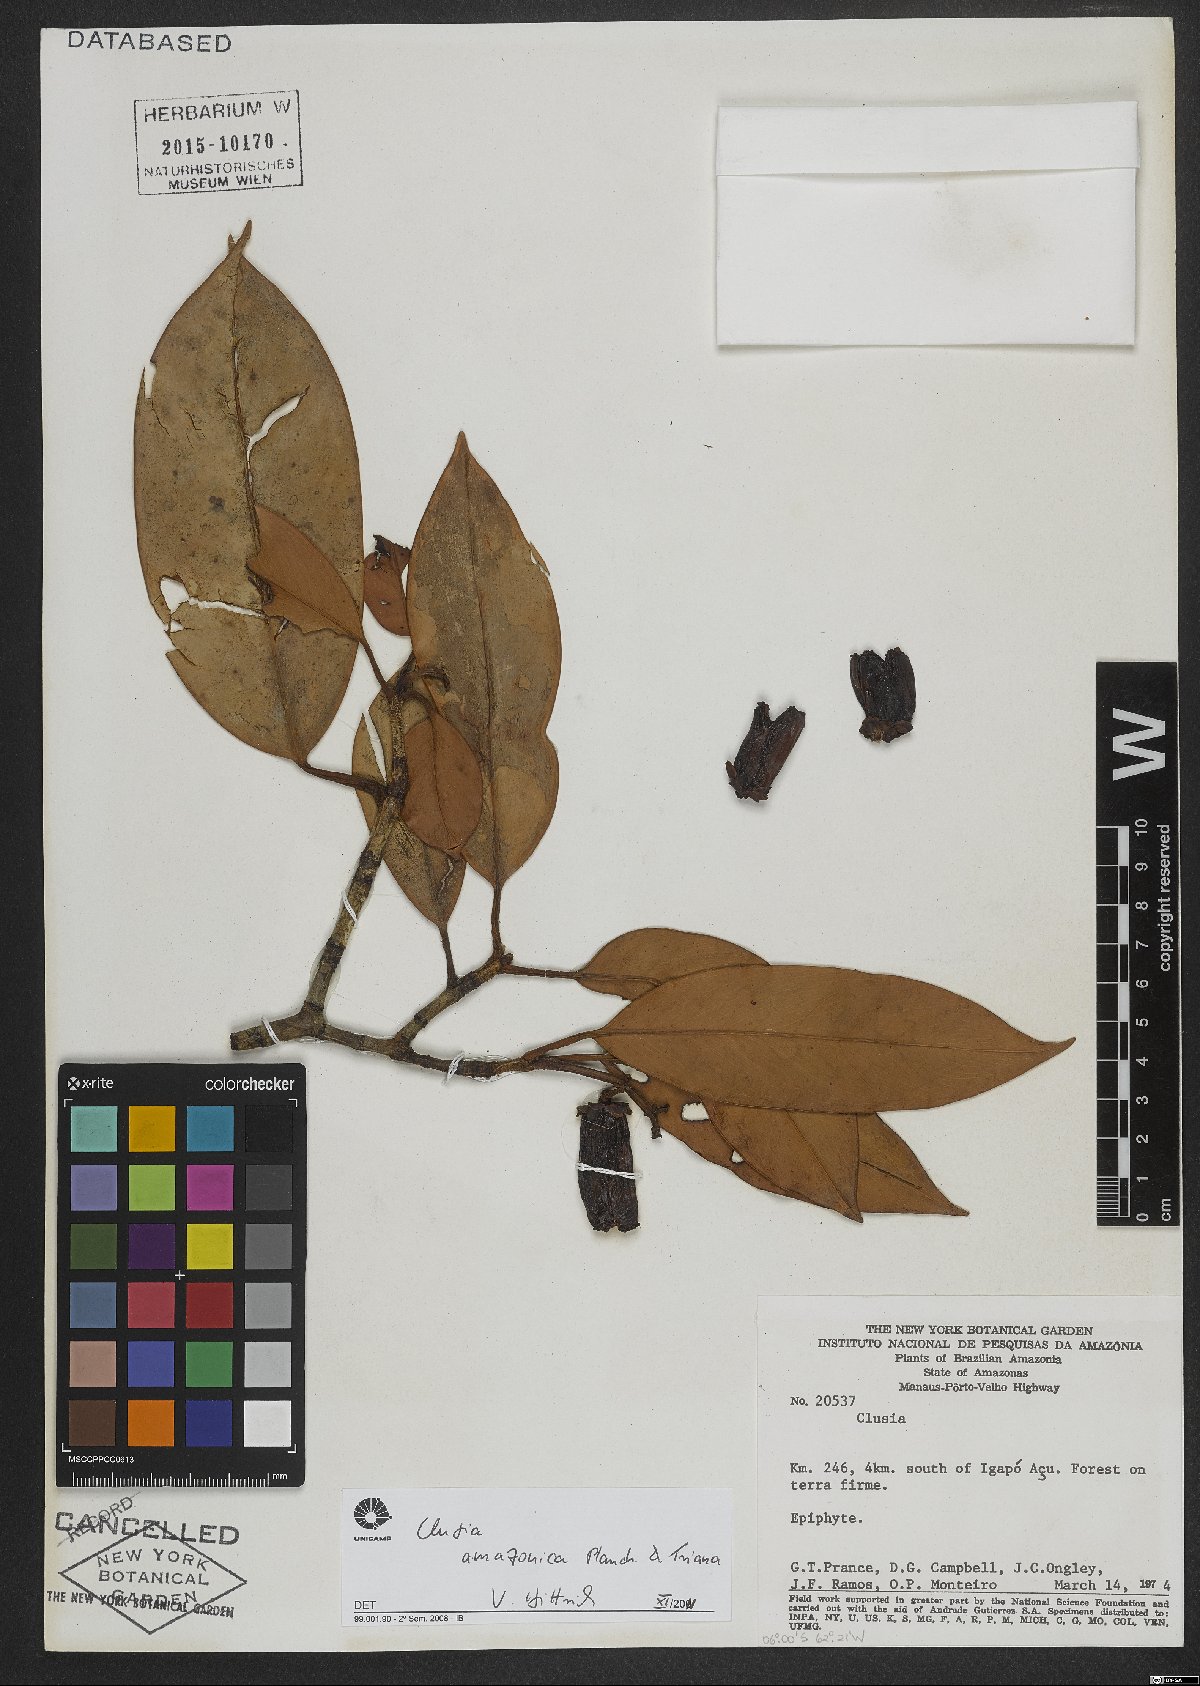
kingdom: Plantae
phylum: Tracheophyta
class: Magnoliopsida
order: Malpighiales
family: Clusiaceae
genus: Clusia
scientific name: Clusia amazonica
